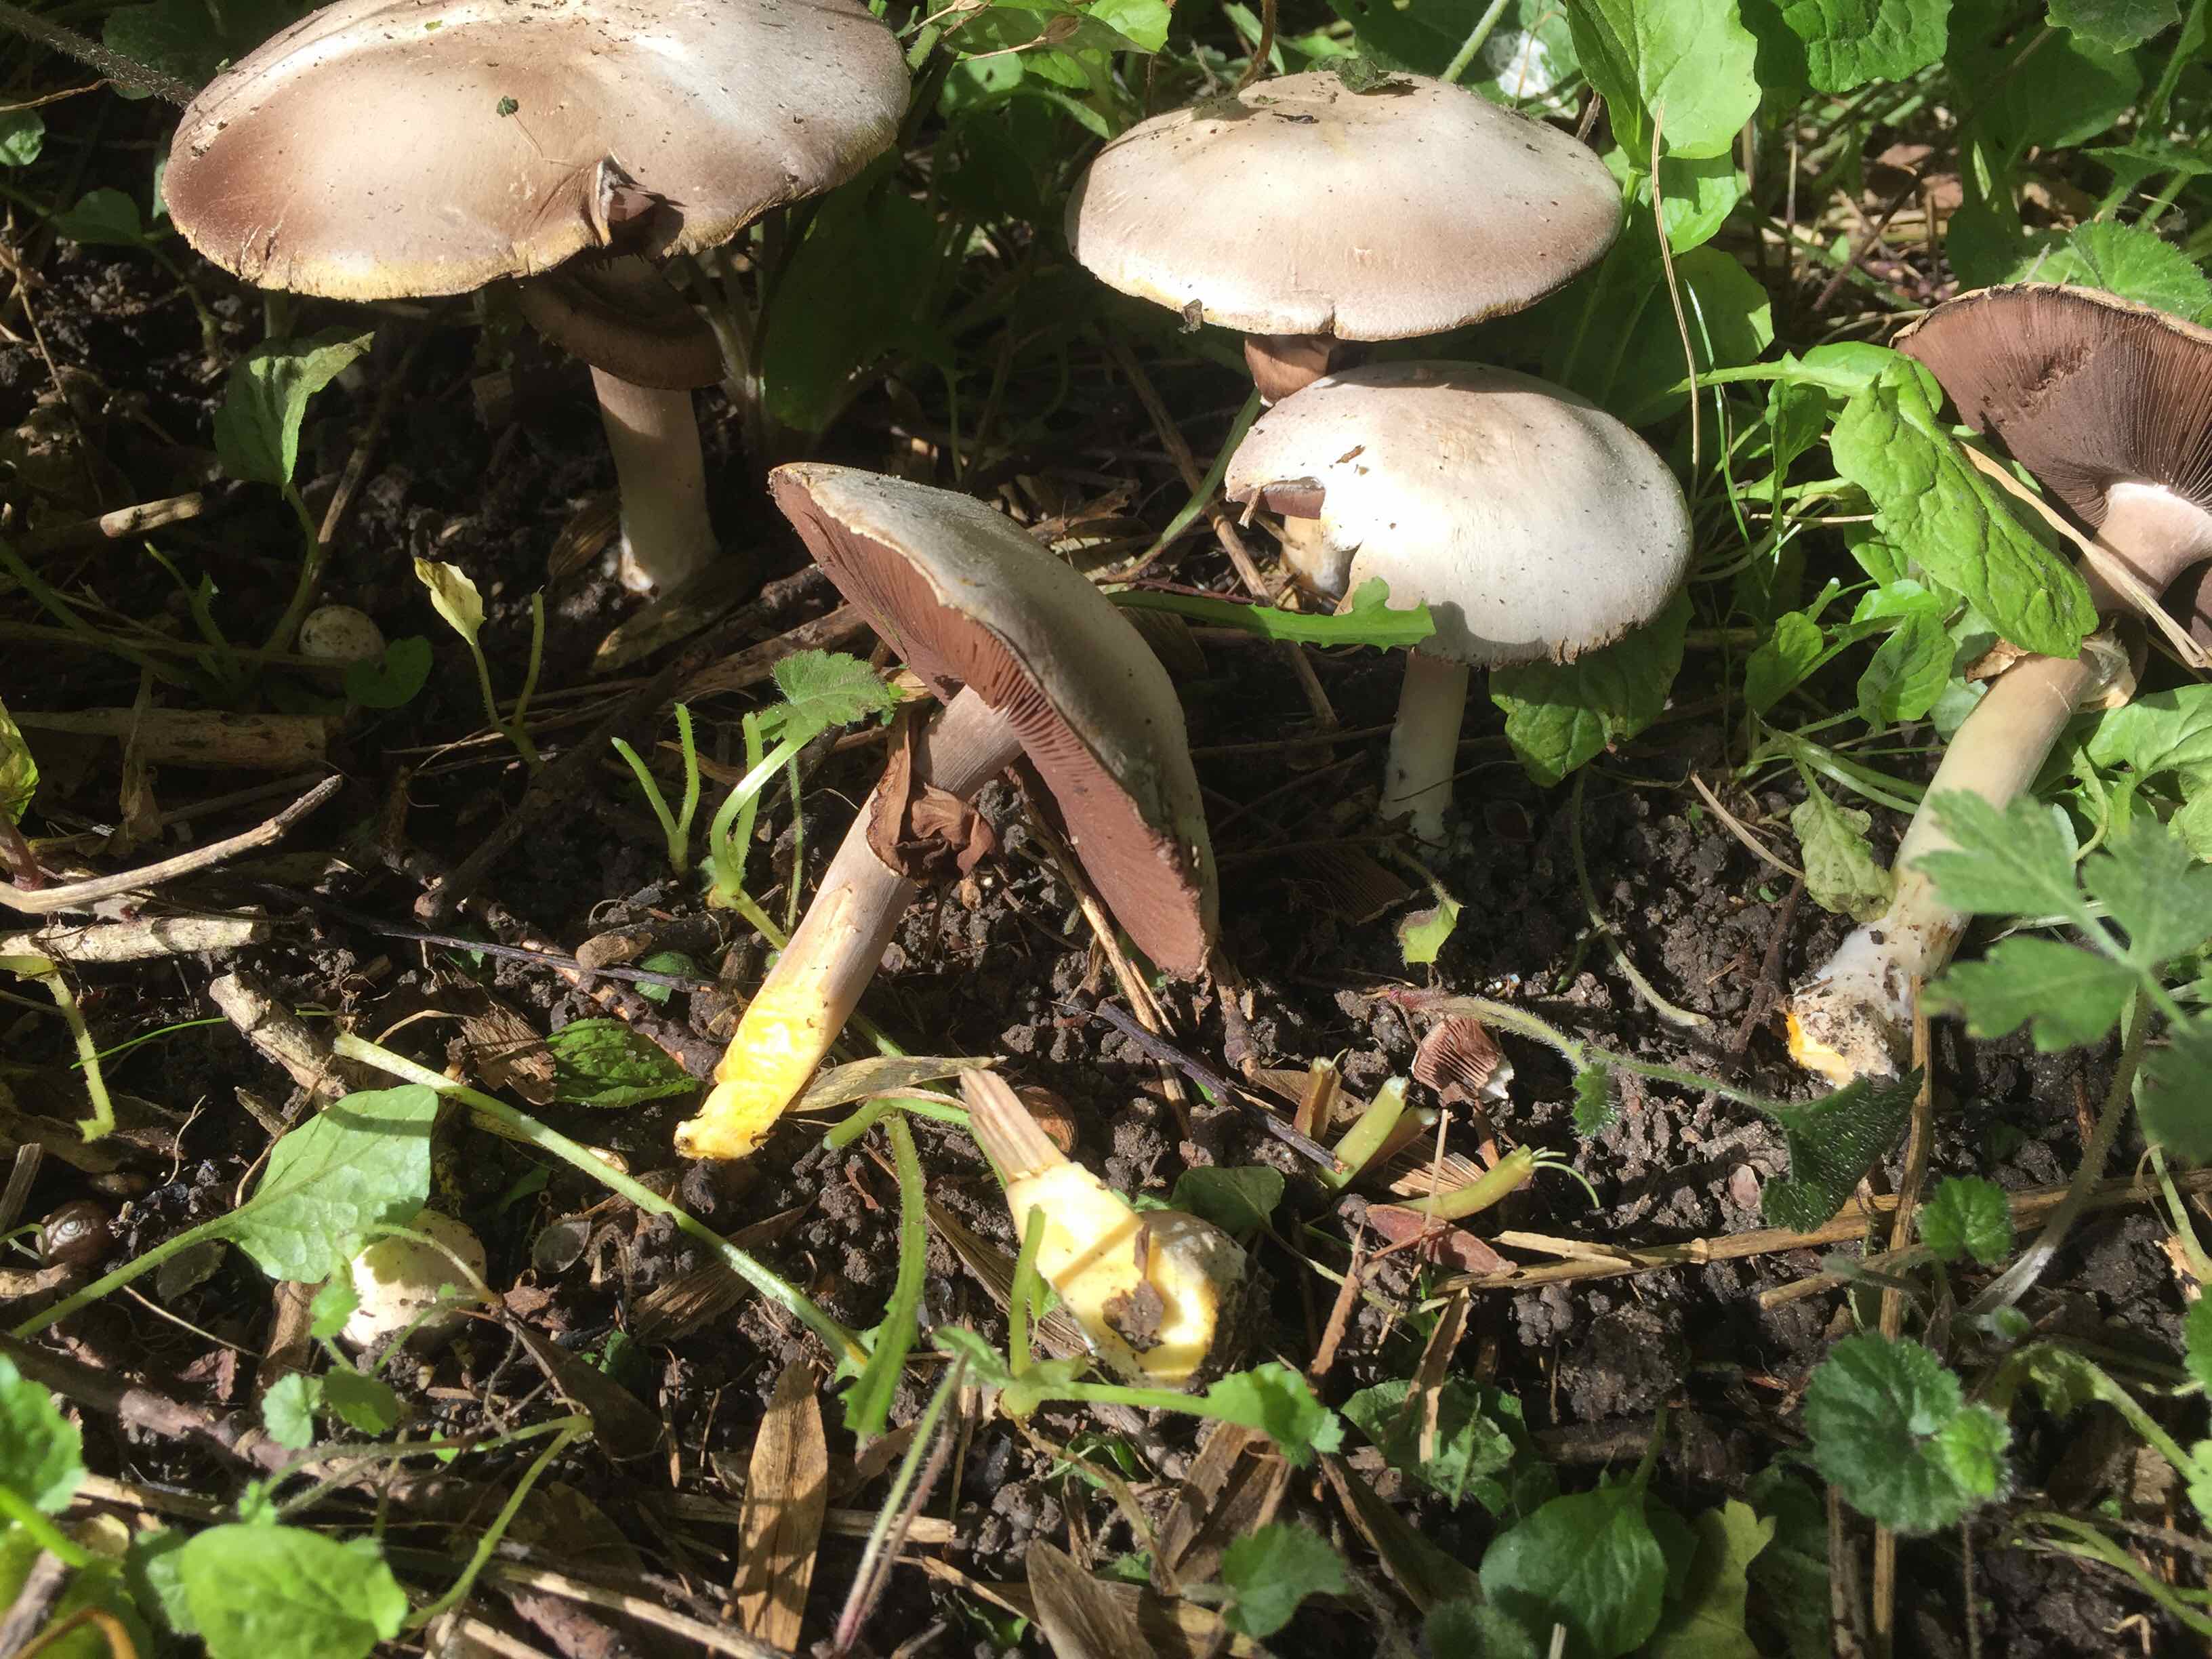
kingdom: Fungi
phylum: Basidiomycota
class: Agaricomycetes
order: Agaricales
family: Agaricaceae
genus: Agaricus
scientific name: Agaricus xanthodermus
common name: karbol-champignon
